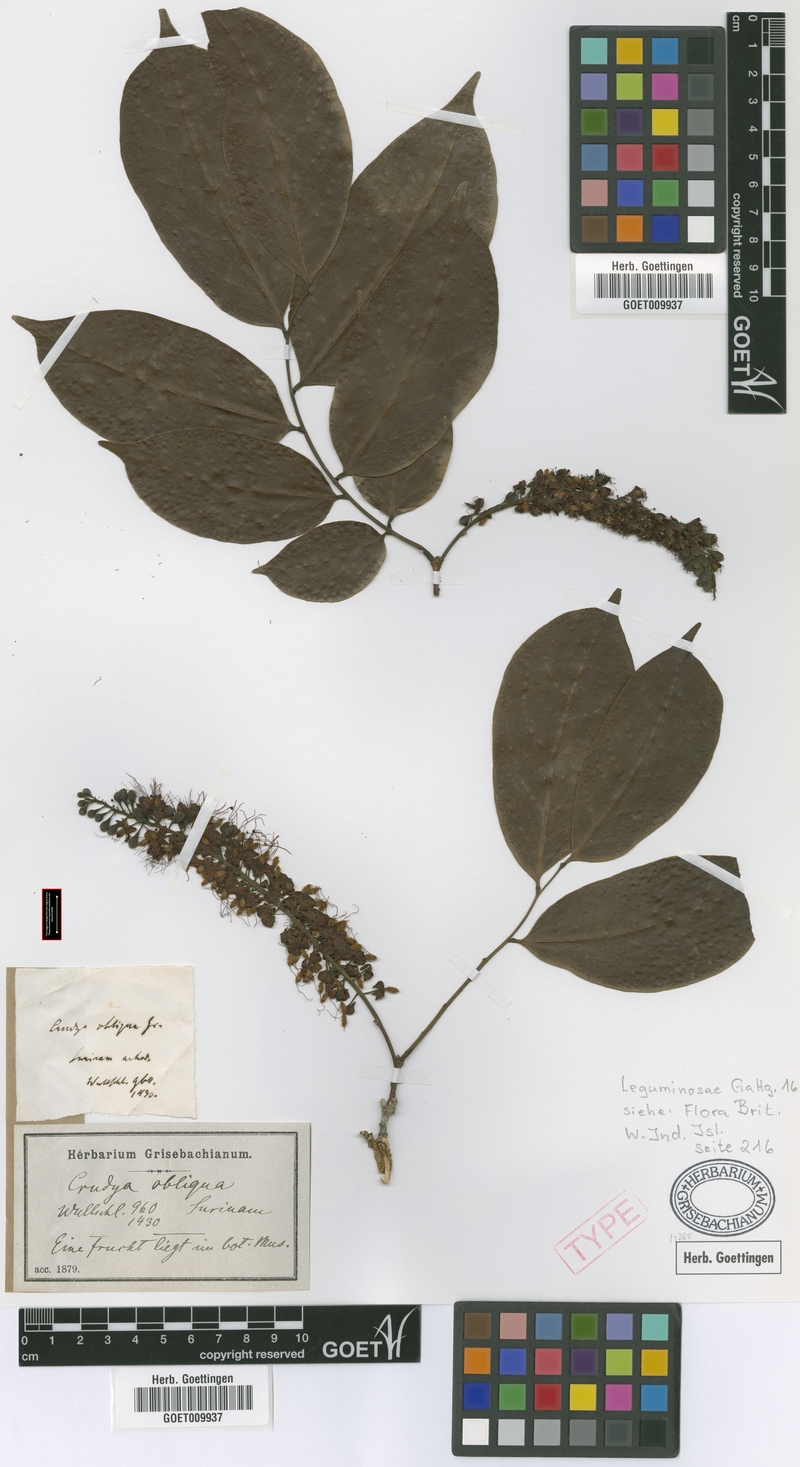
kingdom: Plantae
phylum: Tracheophyta
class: Magnoliopsida
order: Fabales
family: Fabaceae
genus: Crudia
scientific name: Crudia glaberrima
